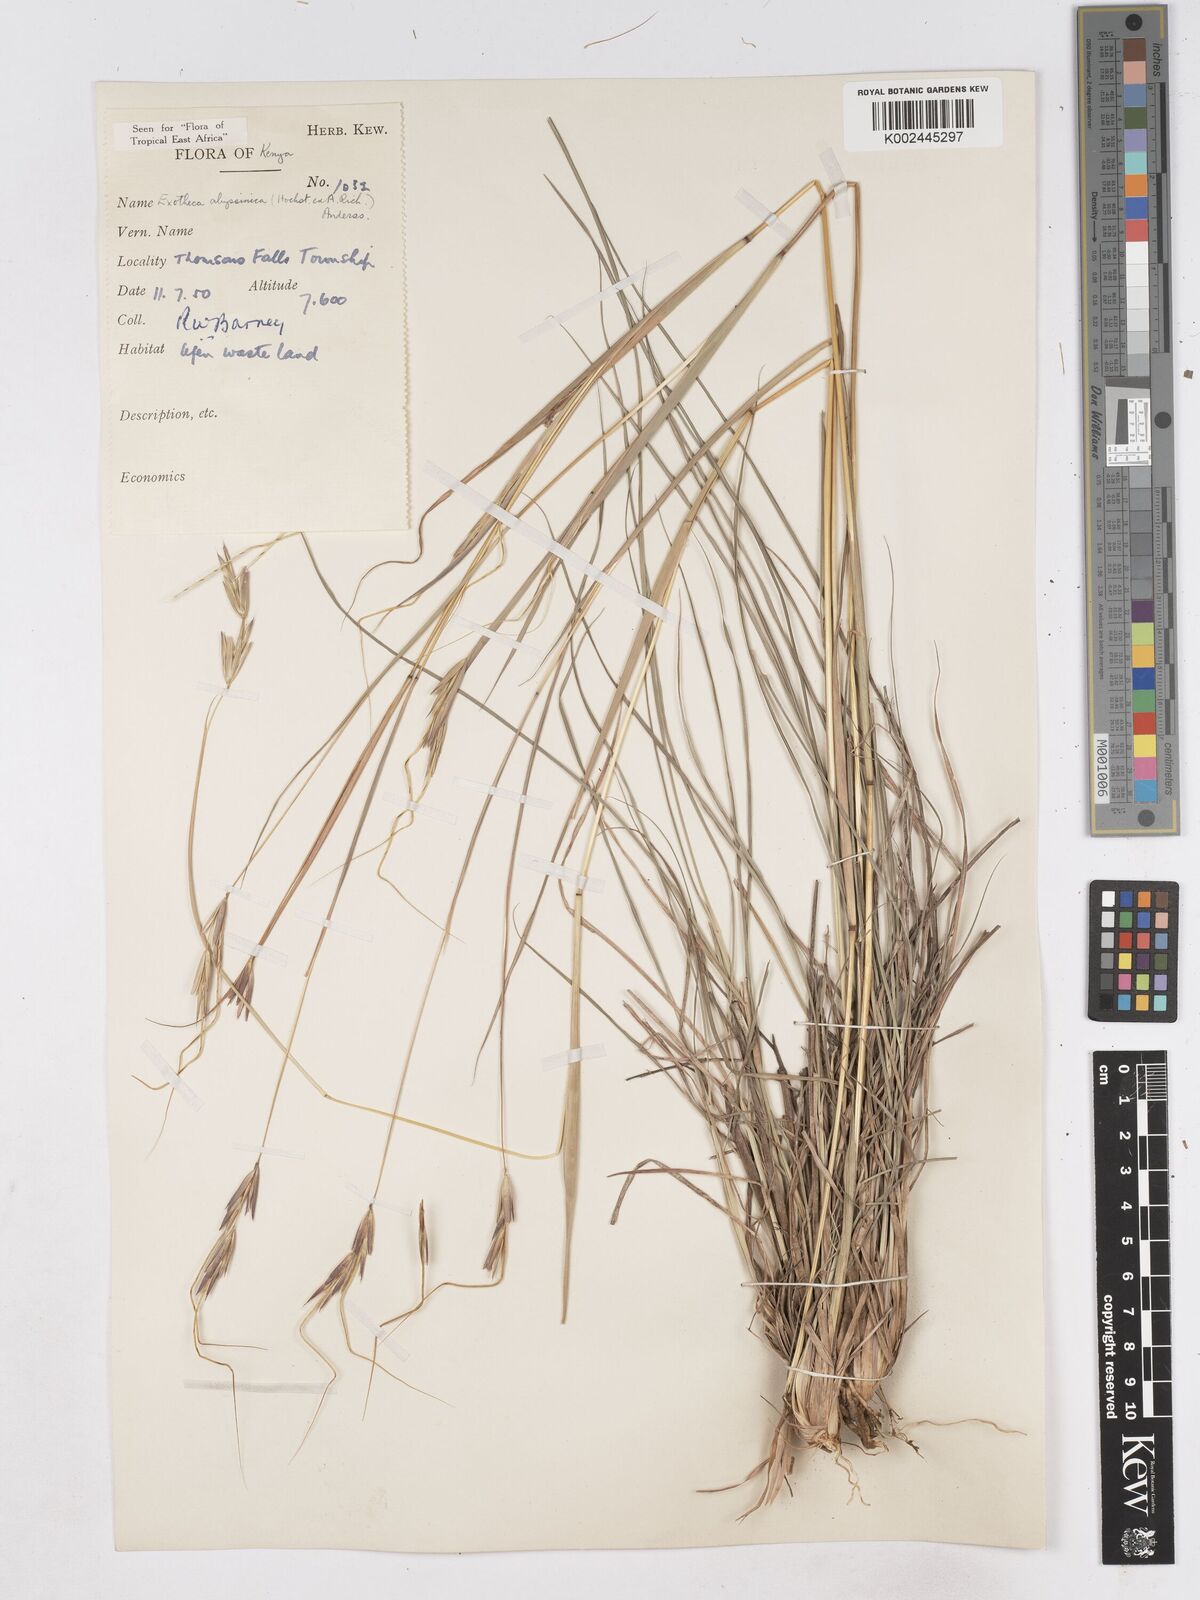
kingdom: Plantae
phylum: Tracheophyta
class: Liliopsida
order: Poales
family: Poaceae
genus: Exotheca
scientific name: Exotheca abyssinica
